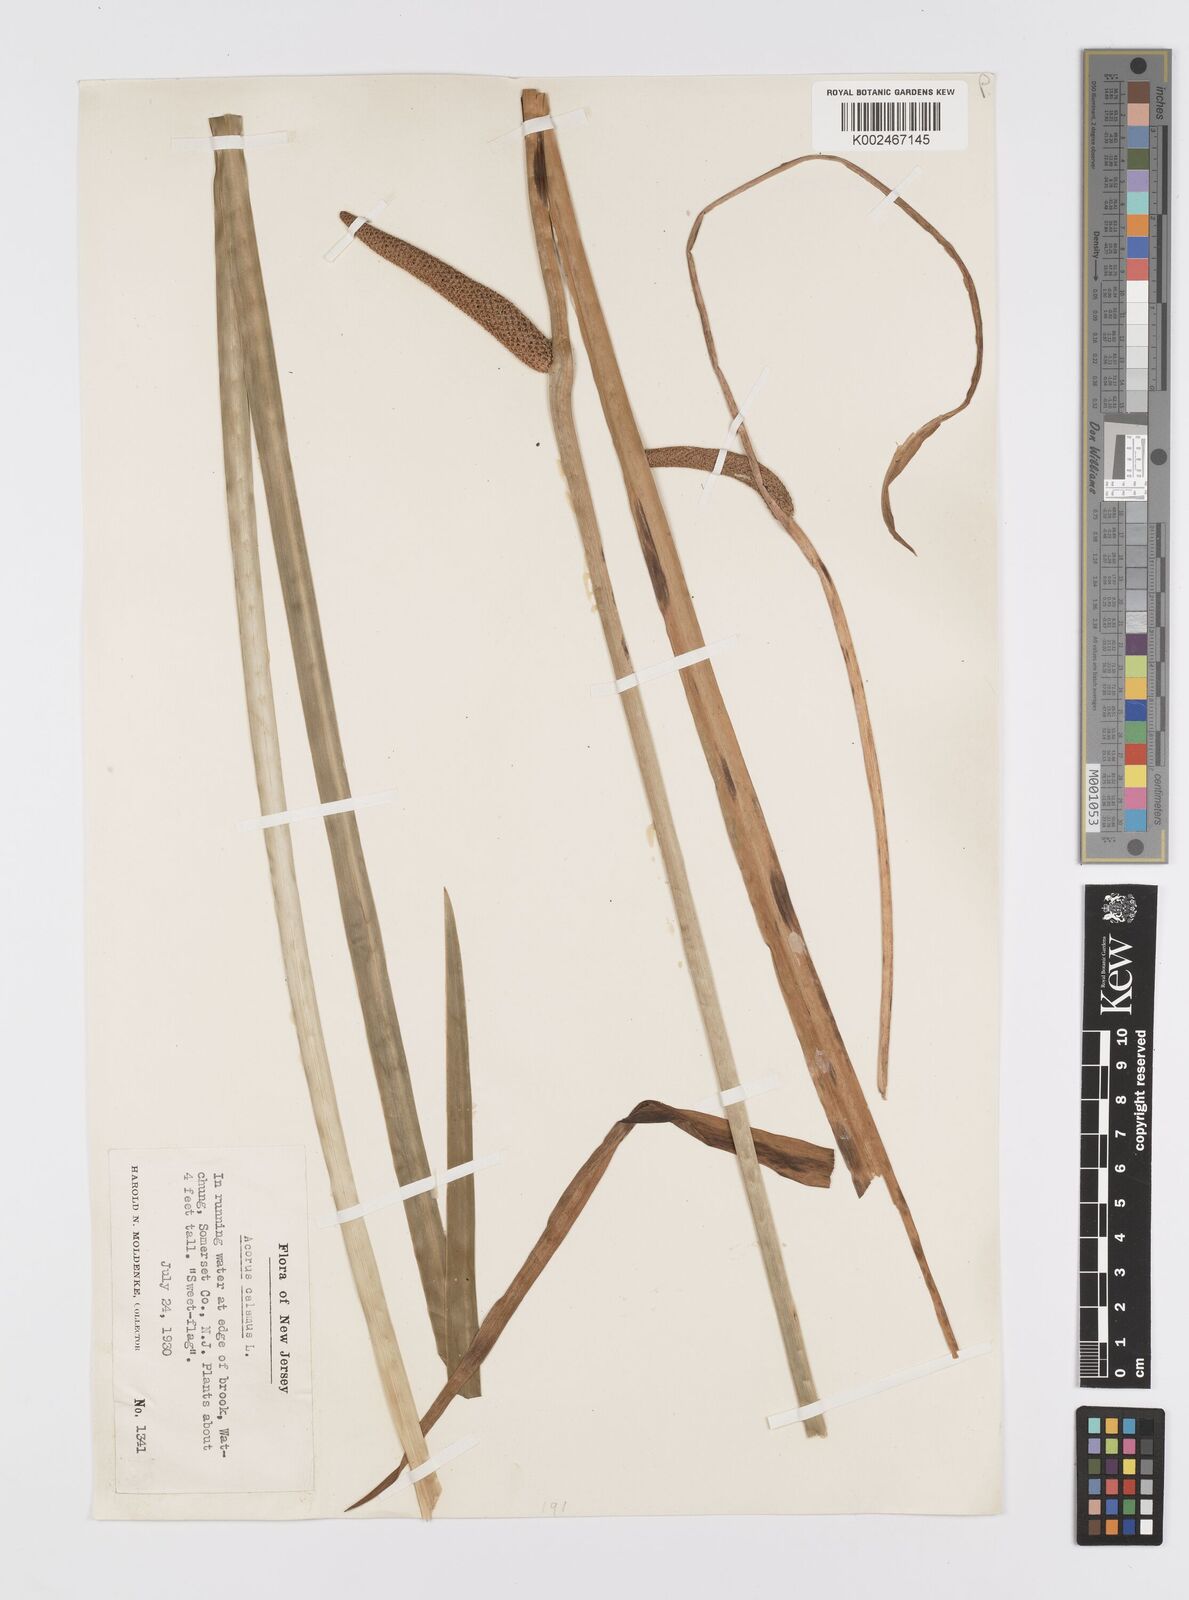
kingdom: Plantae
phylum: Tracheophyta
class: Liliopsida
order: Acorales
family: Acoraceae
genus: Acorus
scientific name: Acorus calamus
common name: Sweet-flag
